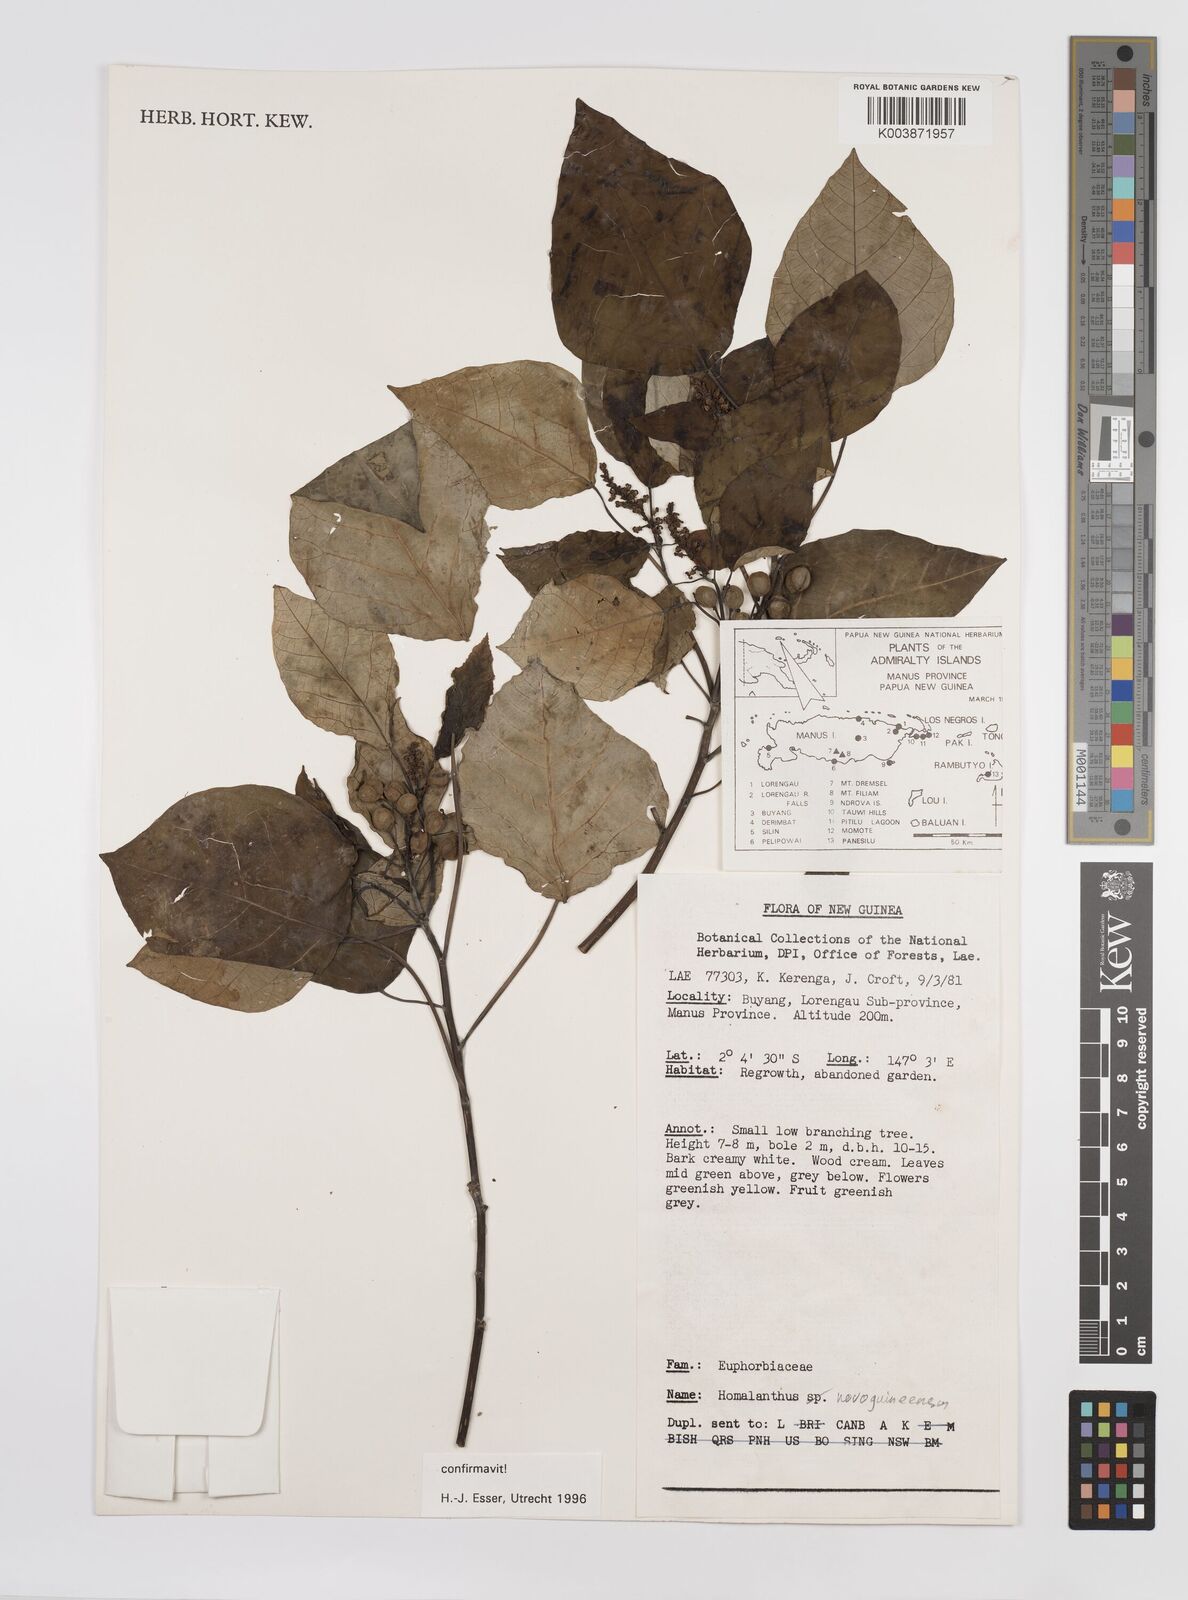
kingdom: Plantae
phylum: Tracheophyta
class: Magnoliopsida
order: Malpighiales
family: Euphorbiaceae
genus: Homalanthus
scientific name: Homalanthus novoguineensis
